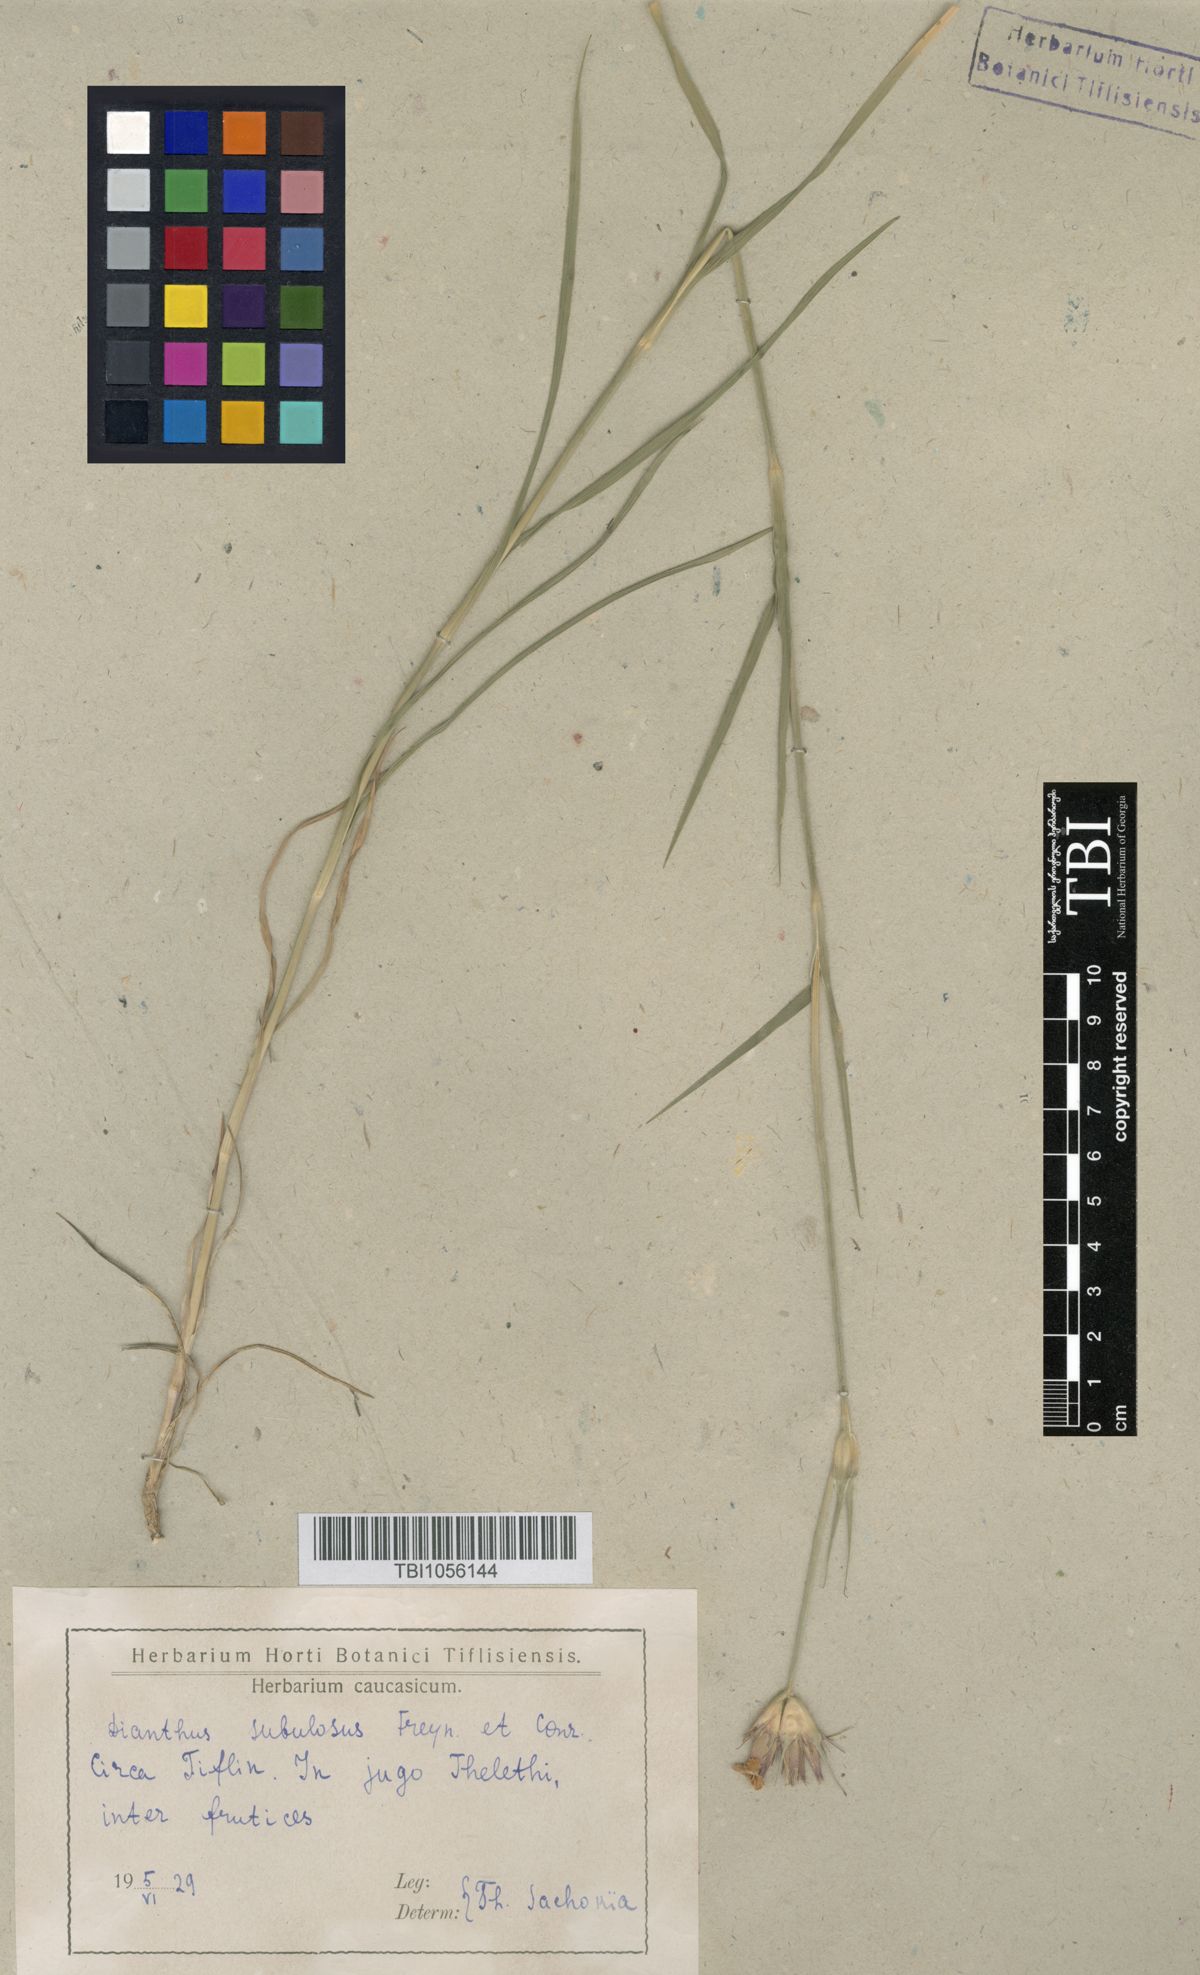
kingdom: Plantae
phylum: Tracheophyta
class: Magnoliopsida
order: Caryophyllales
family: Caryophyllaceae
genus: Dianthus
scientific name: Dianthus subulosus
